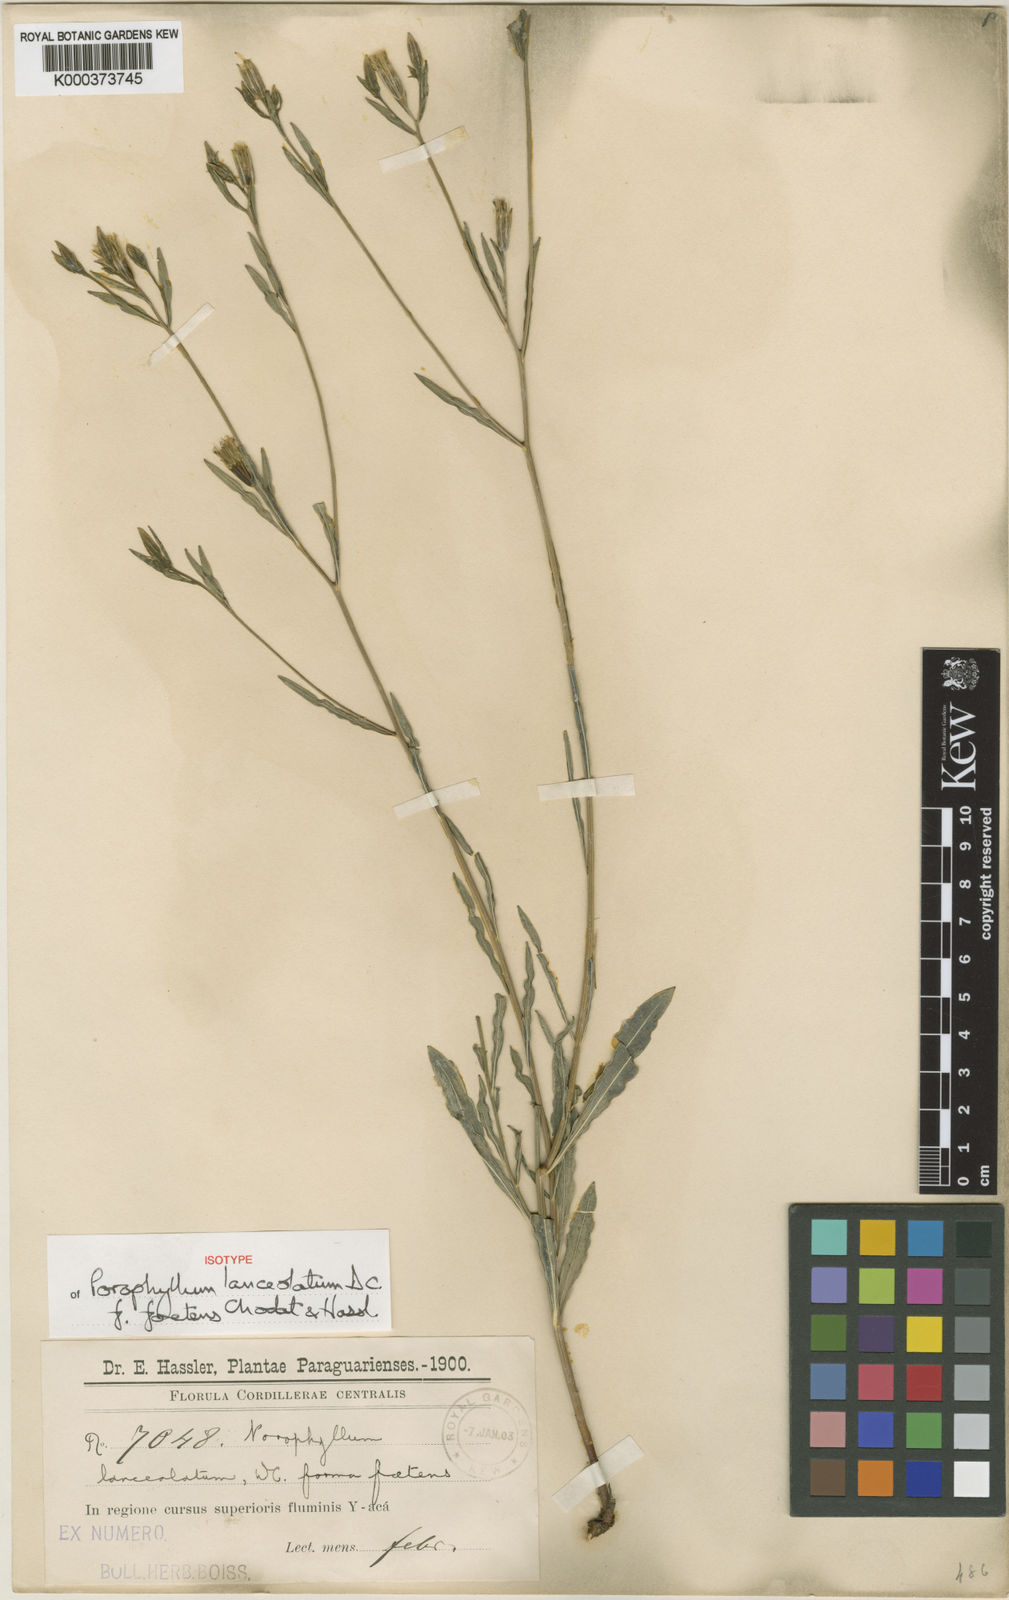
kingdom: Plantae
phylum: Tracheophyta
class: Magnoliopsida
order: Asterales
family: Asteraceae
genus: Porophyllum
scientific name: Porophyllum lanceolatum
